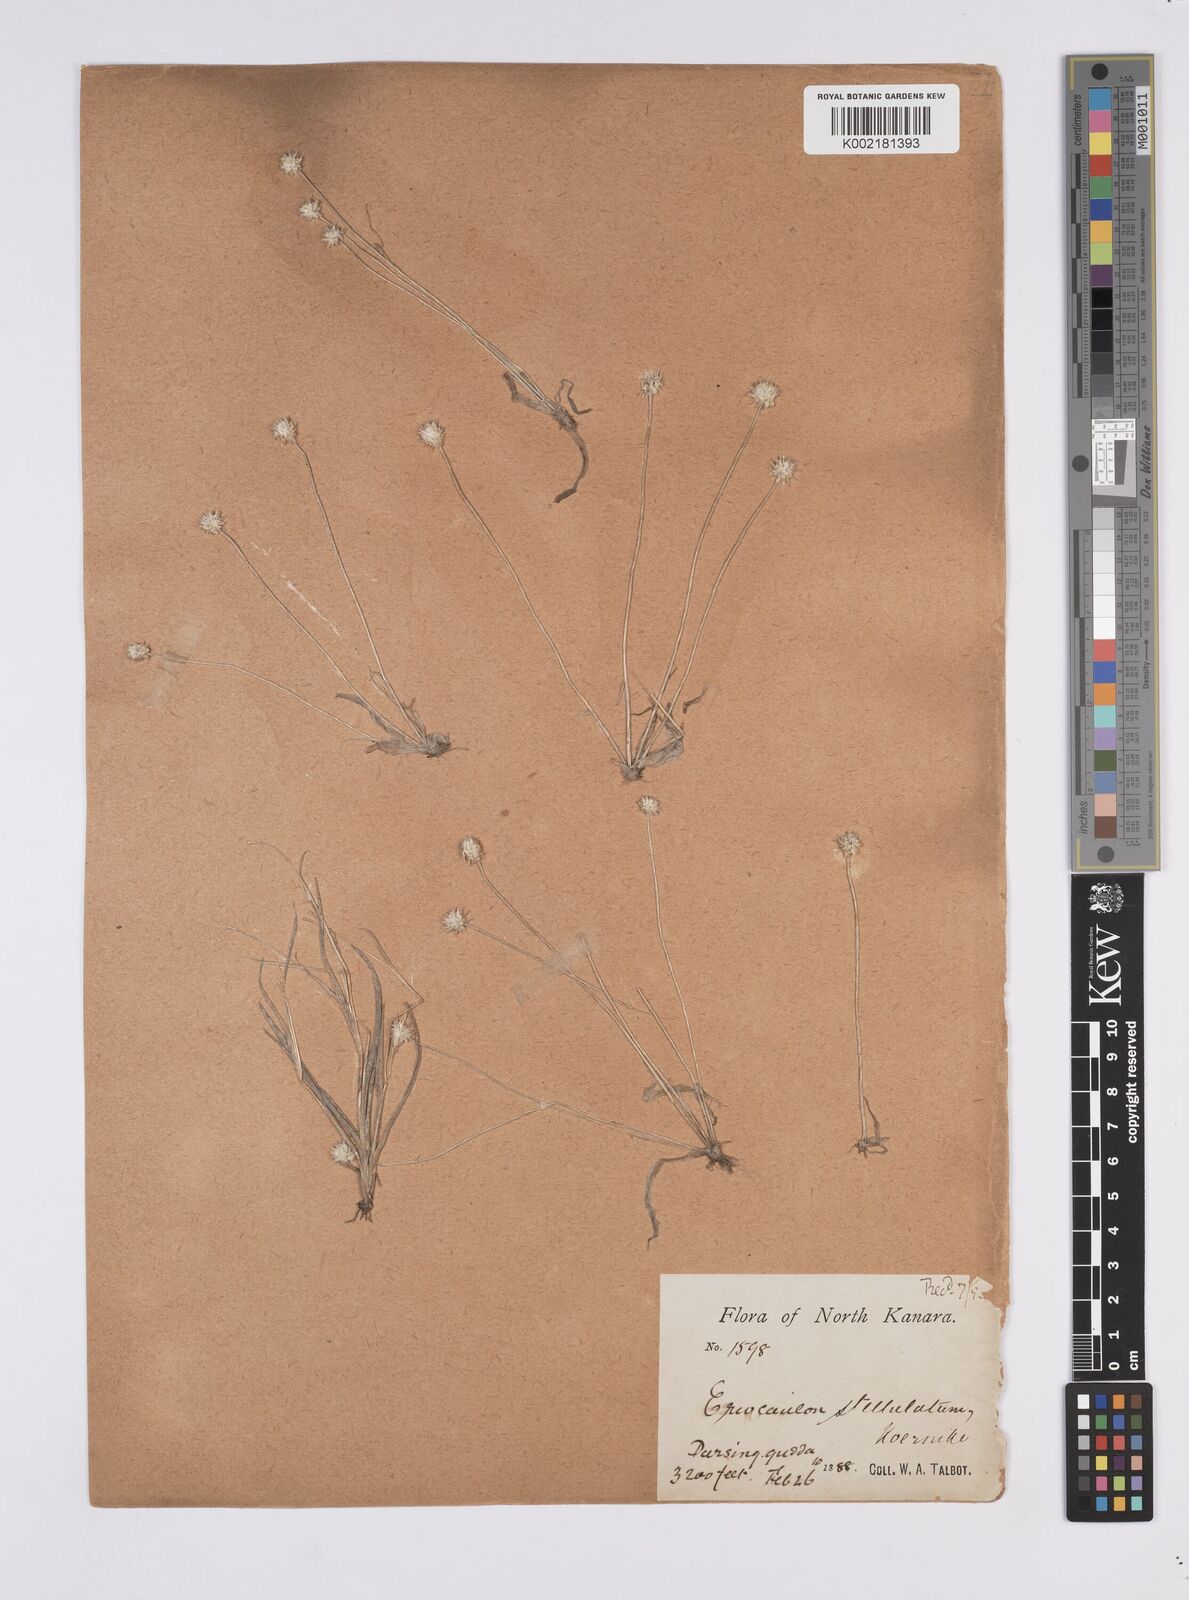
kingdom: Plantae
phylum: Tracheophyta
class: Liliopsida
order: Poales
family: Eriocaulaceae
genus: Eriocaulon
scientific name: Eriocaulon stellulatum
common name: Starry pipewort
